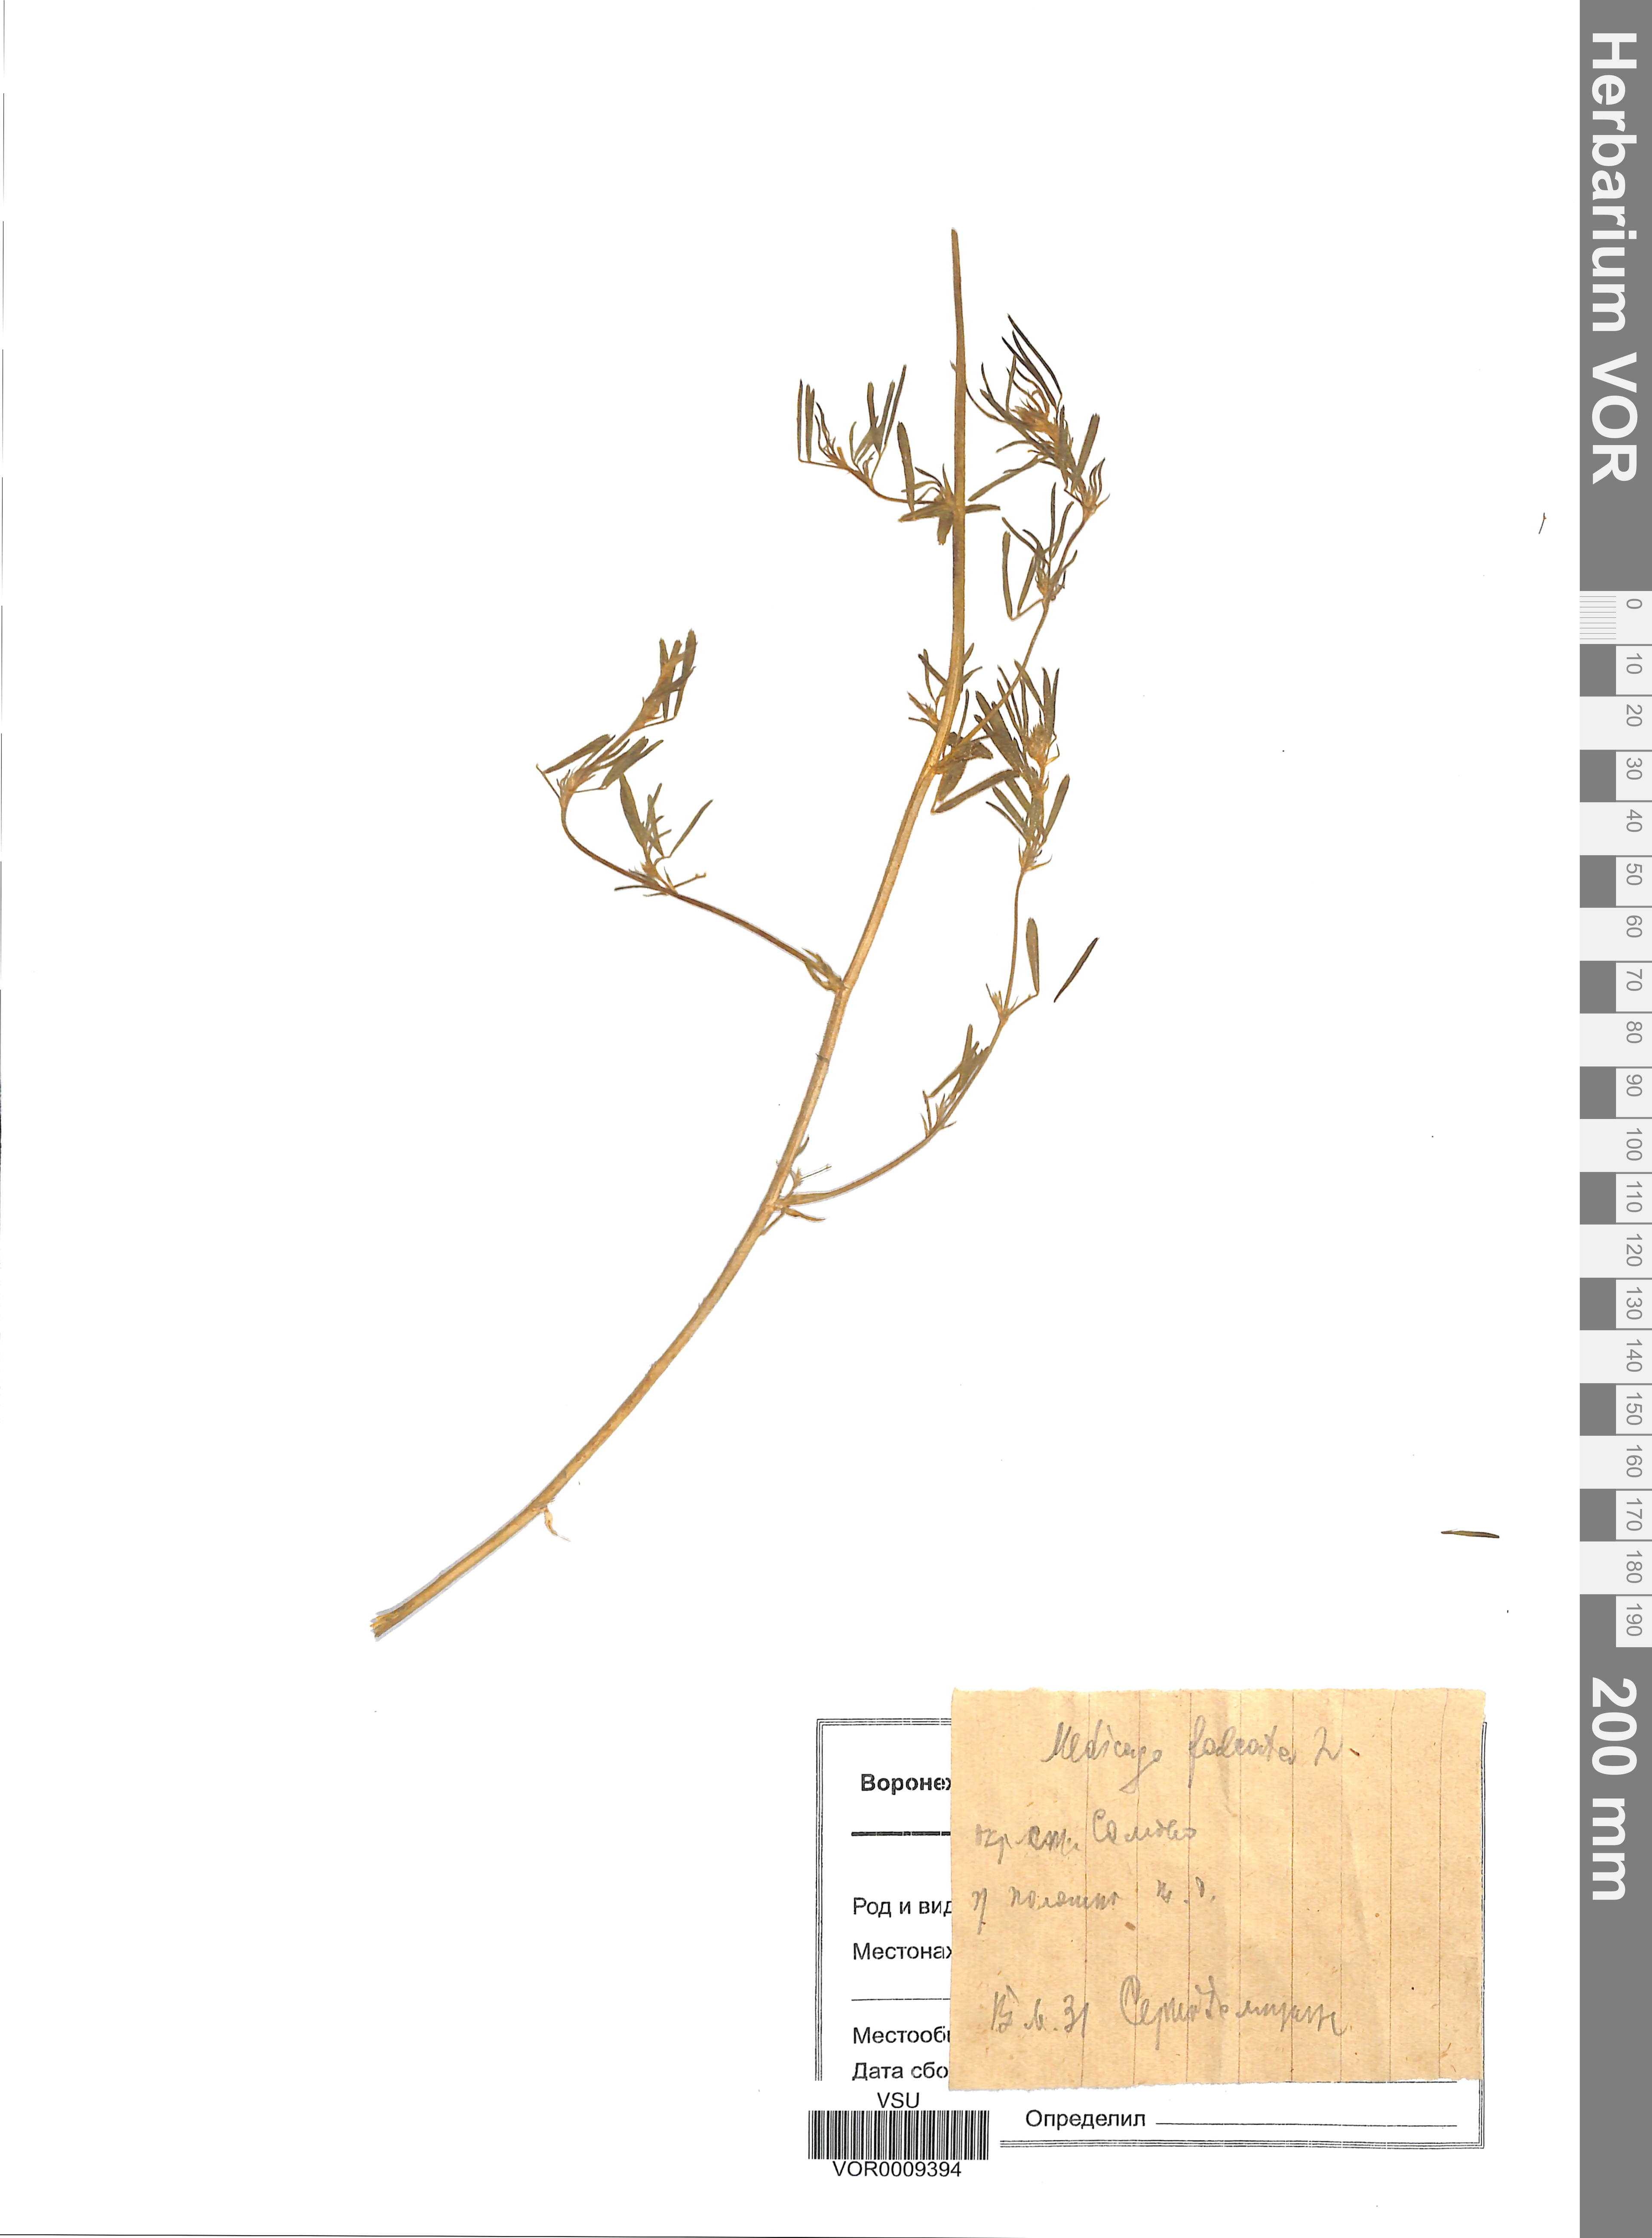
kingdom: Plantae
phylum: Tracheophyta
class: Magnoliopsida
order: Fabales
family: Fabaceae
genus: Medicago
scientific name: Medicago falcata
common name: Sickle medick
